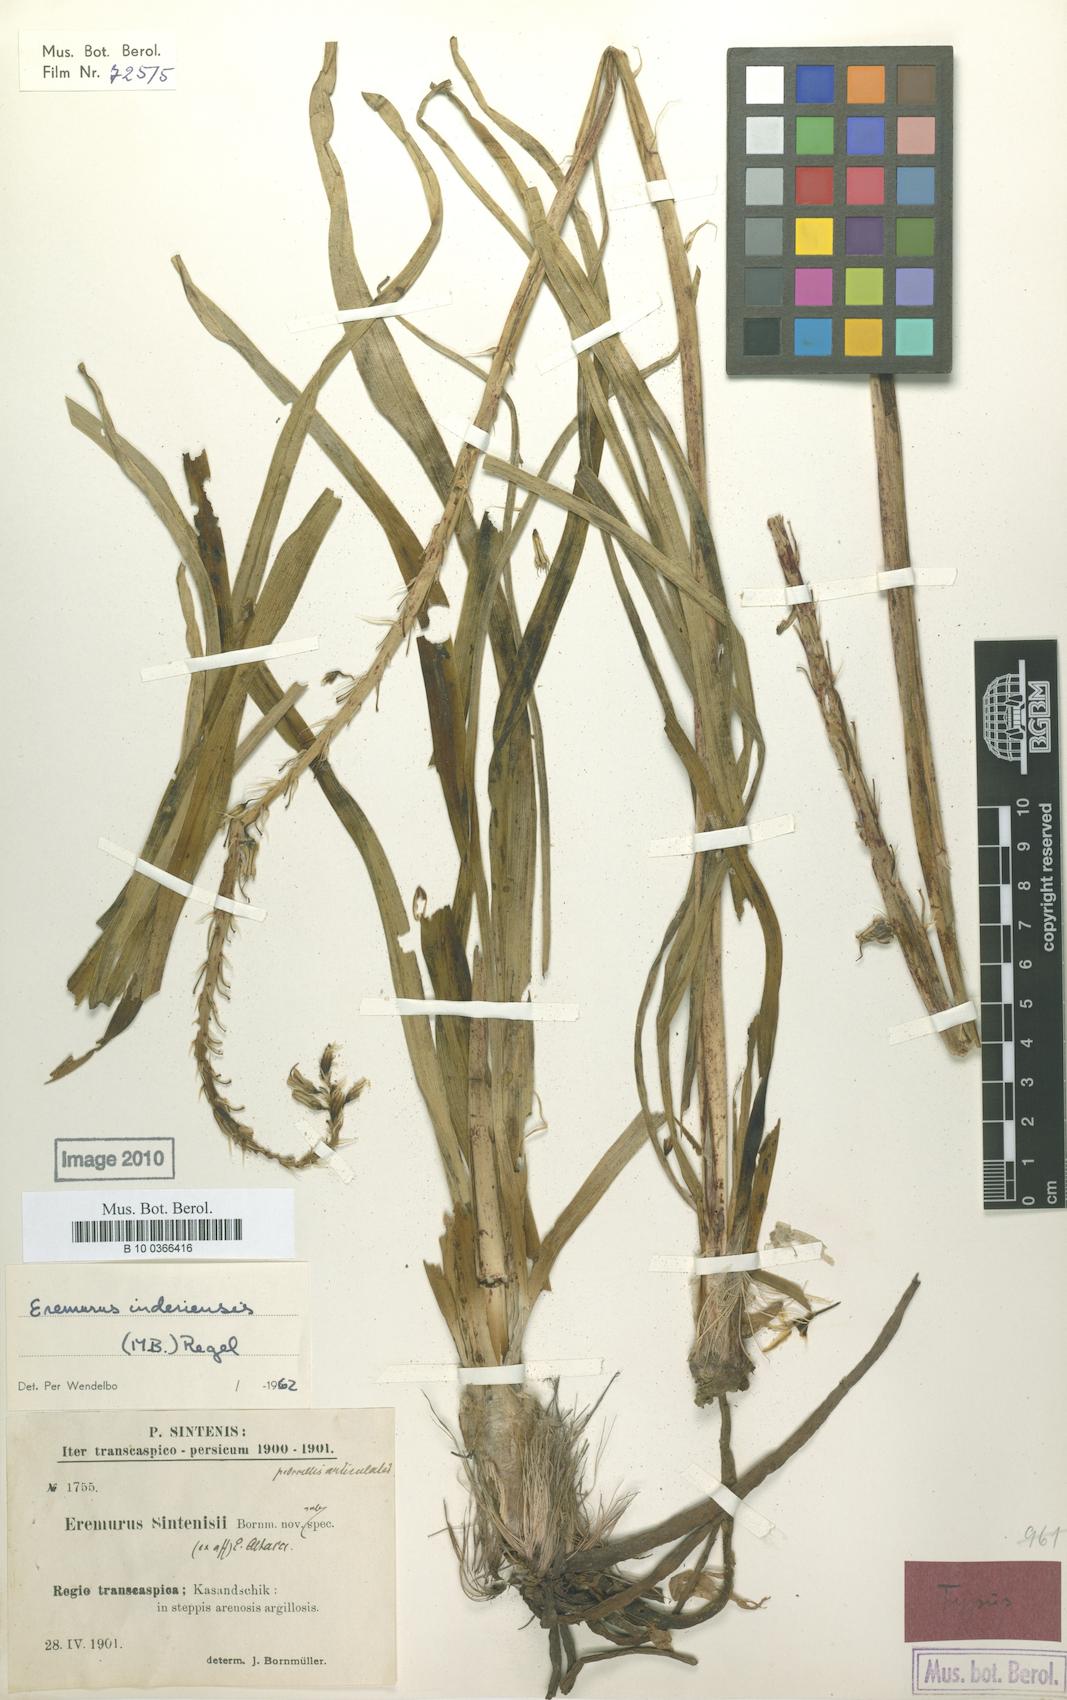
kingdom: Plantae
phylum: Tracheophyta
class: Liliopsida
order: Asparagales
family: Asphodelaceae
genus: Eremurus
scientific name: Eremurus inderiensis
